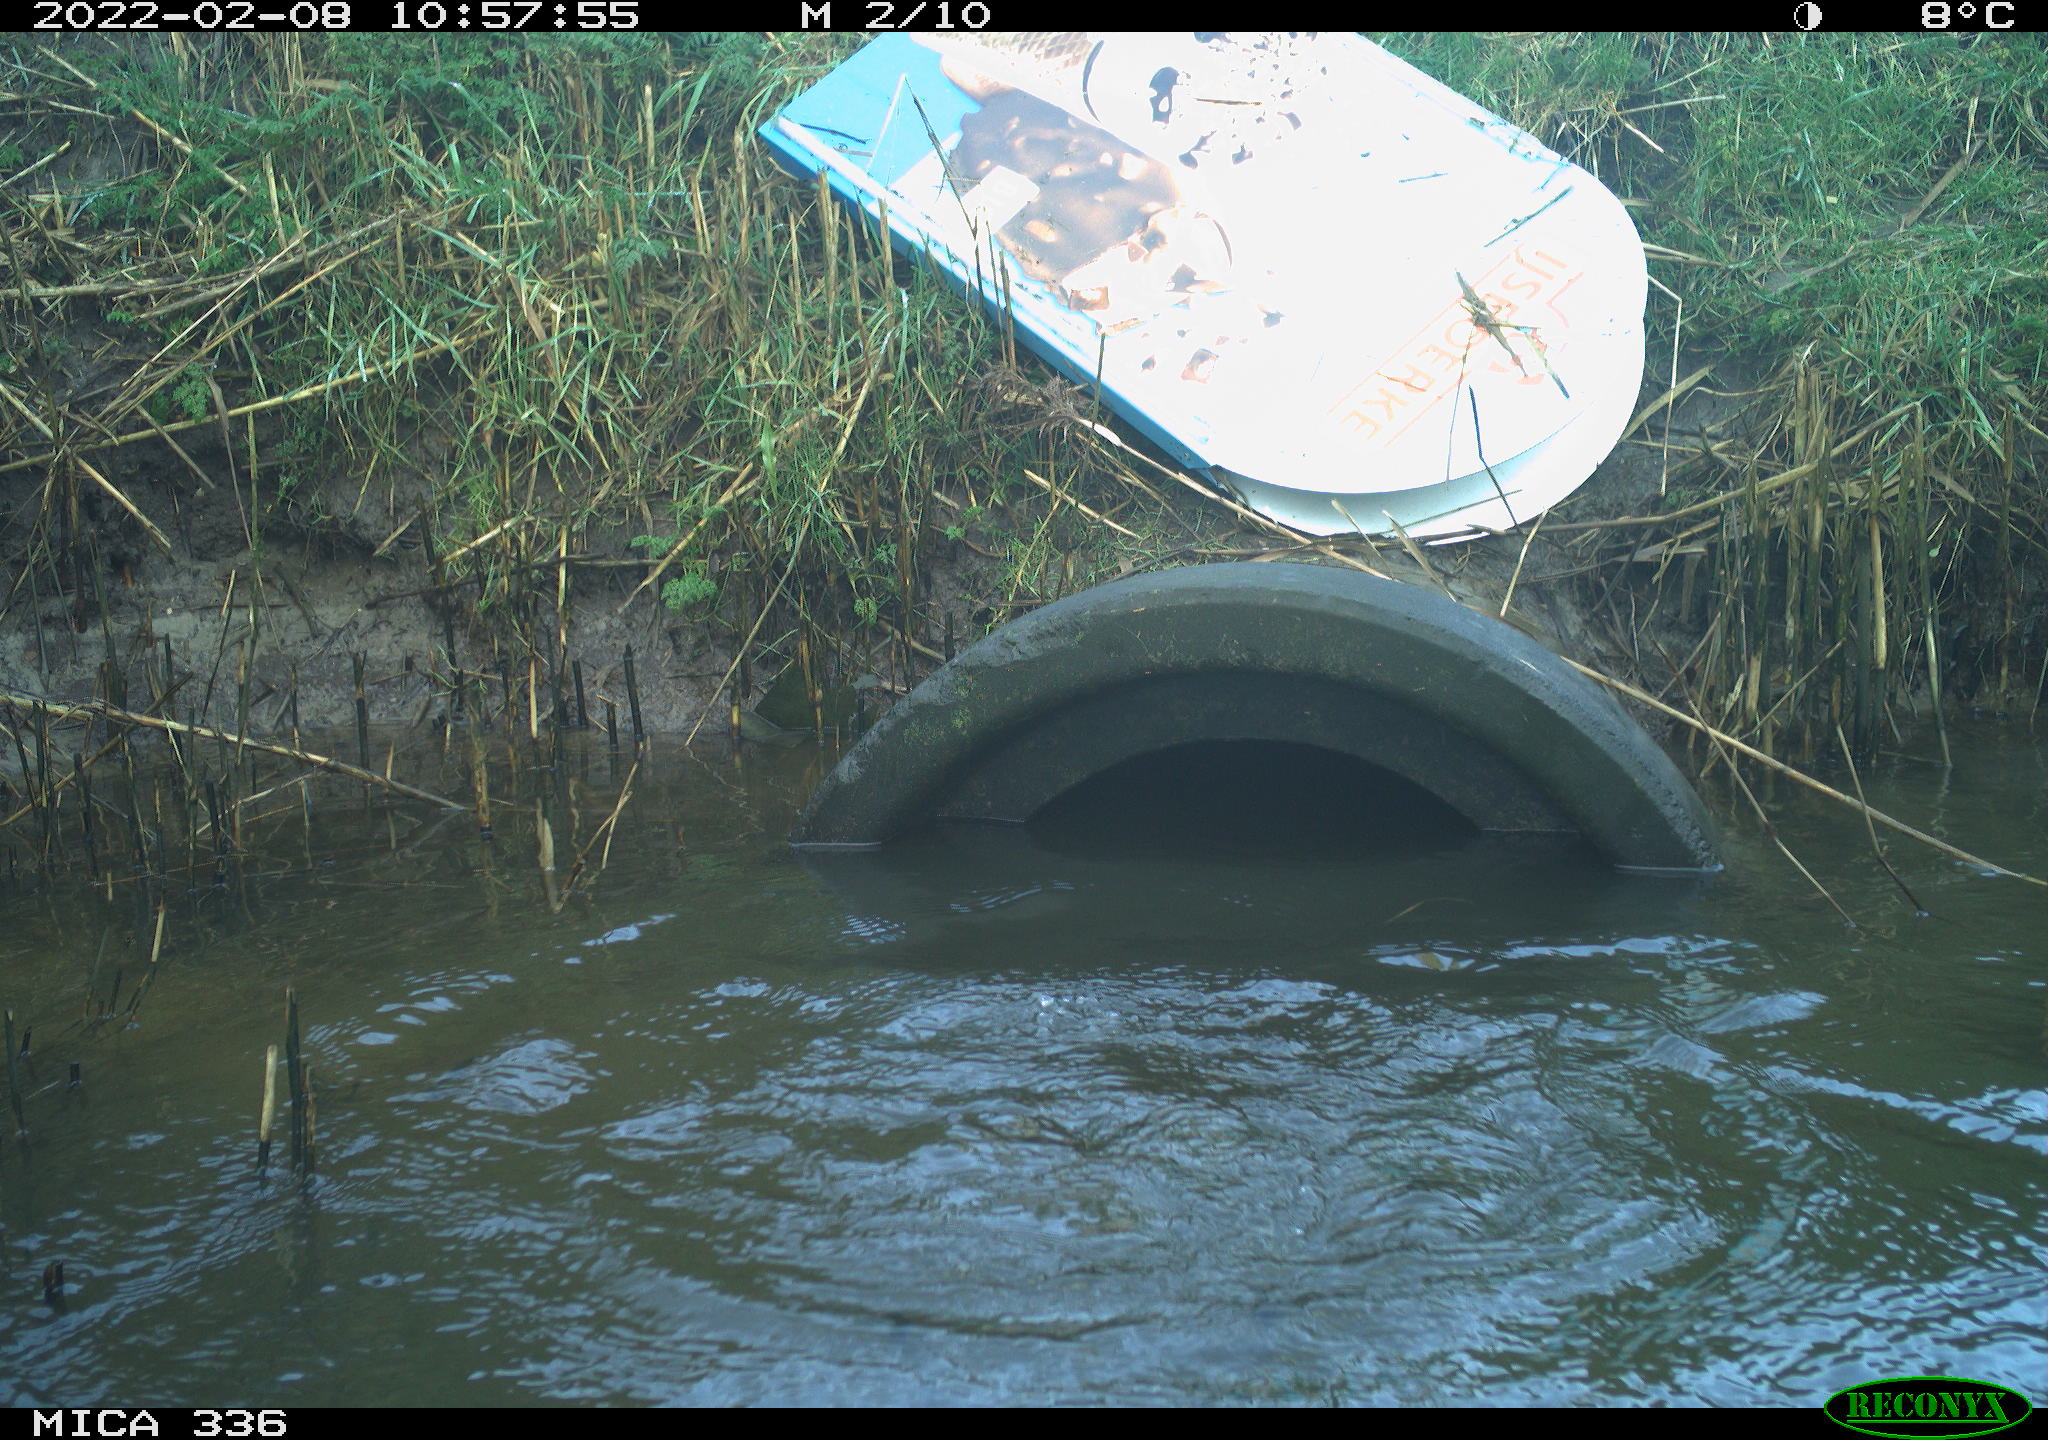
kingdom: Animalia
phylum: Chordata
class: Aves
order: Suliformes
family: Phalacrocoracidae
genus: Phalacrocorax
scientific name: Phalacrocorax carbo
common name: Great cormorant
